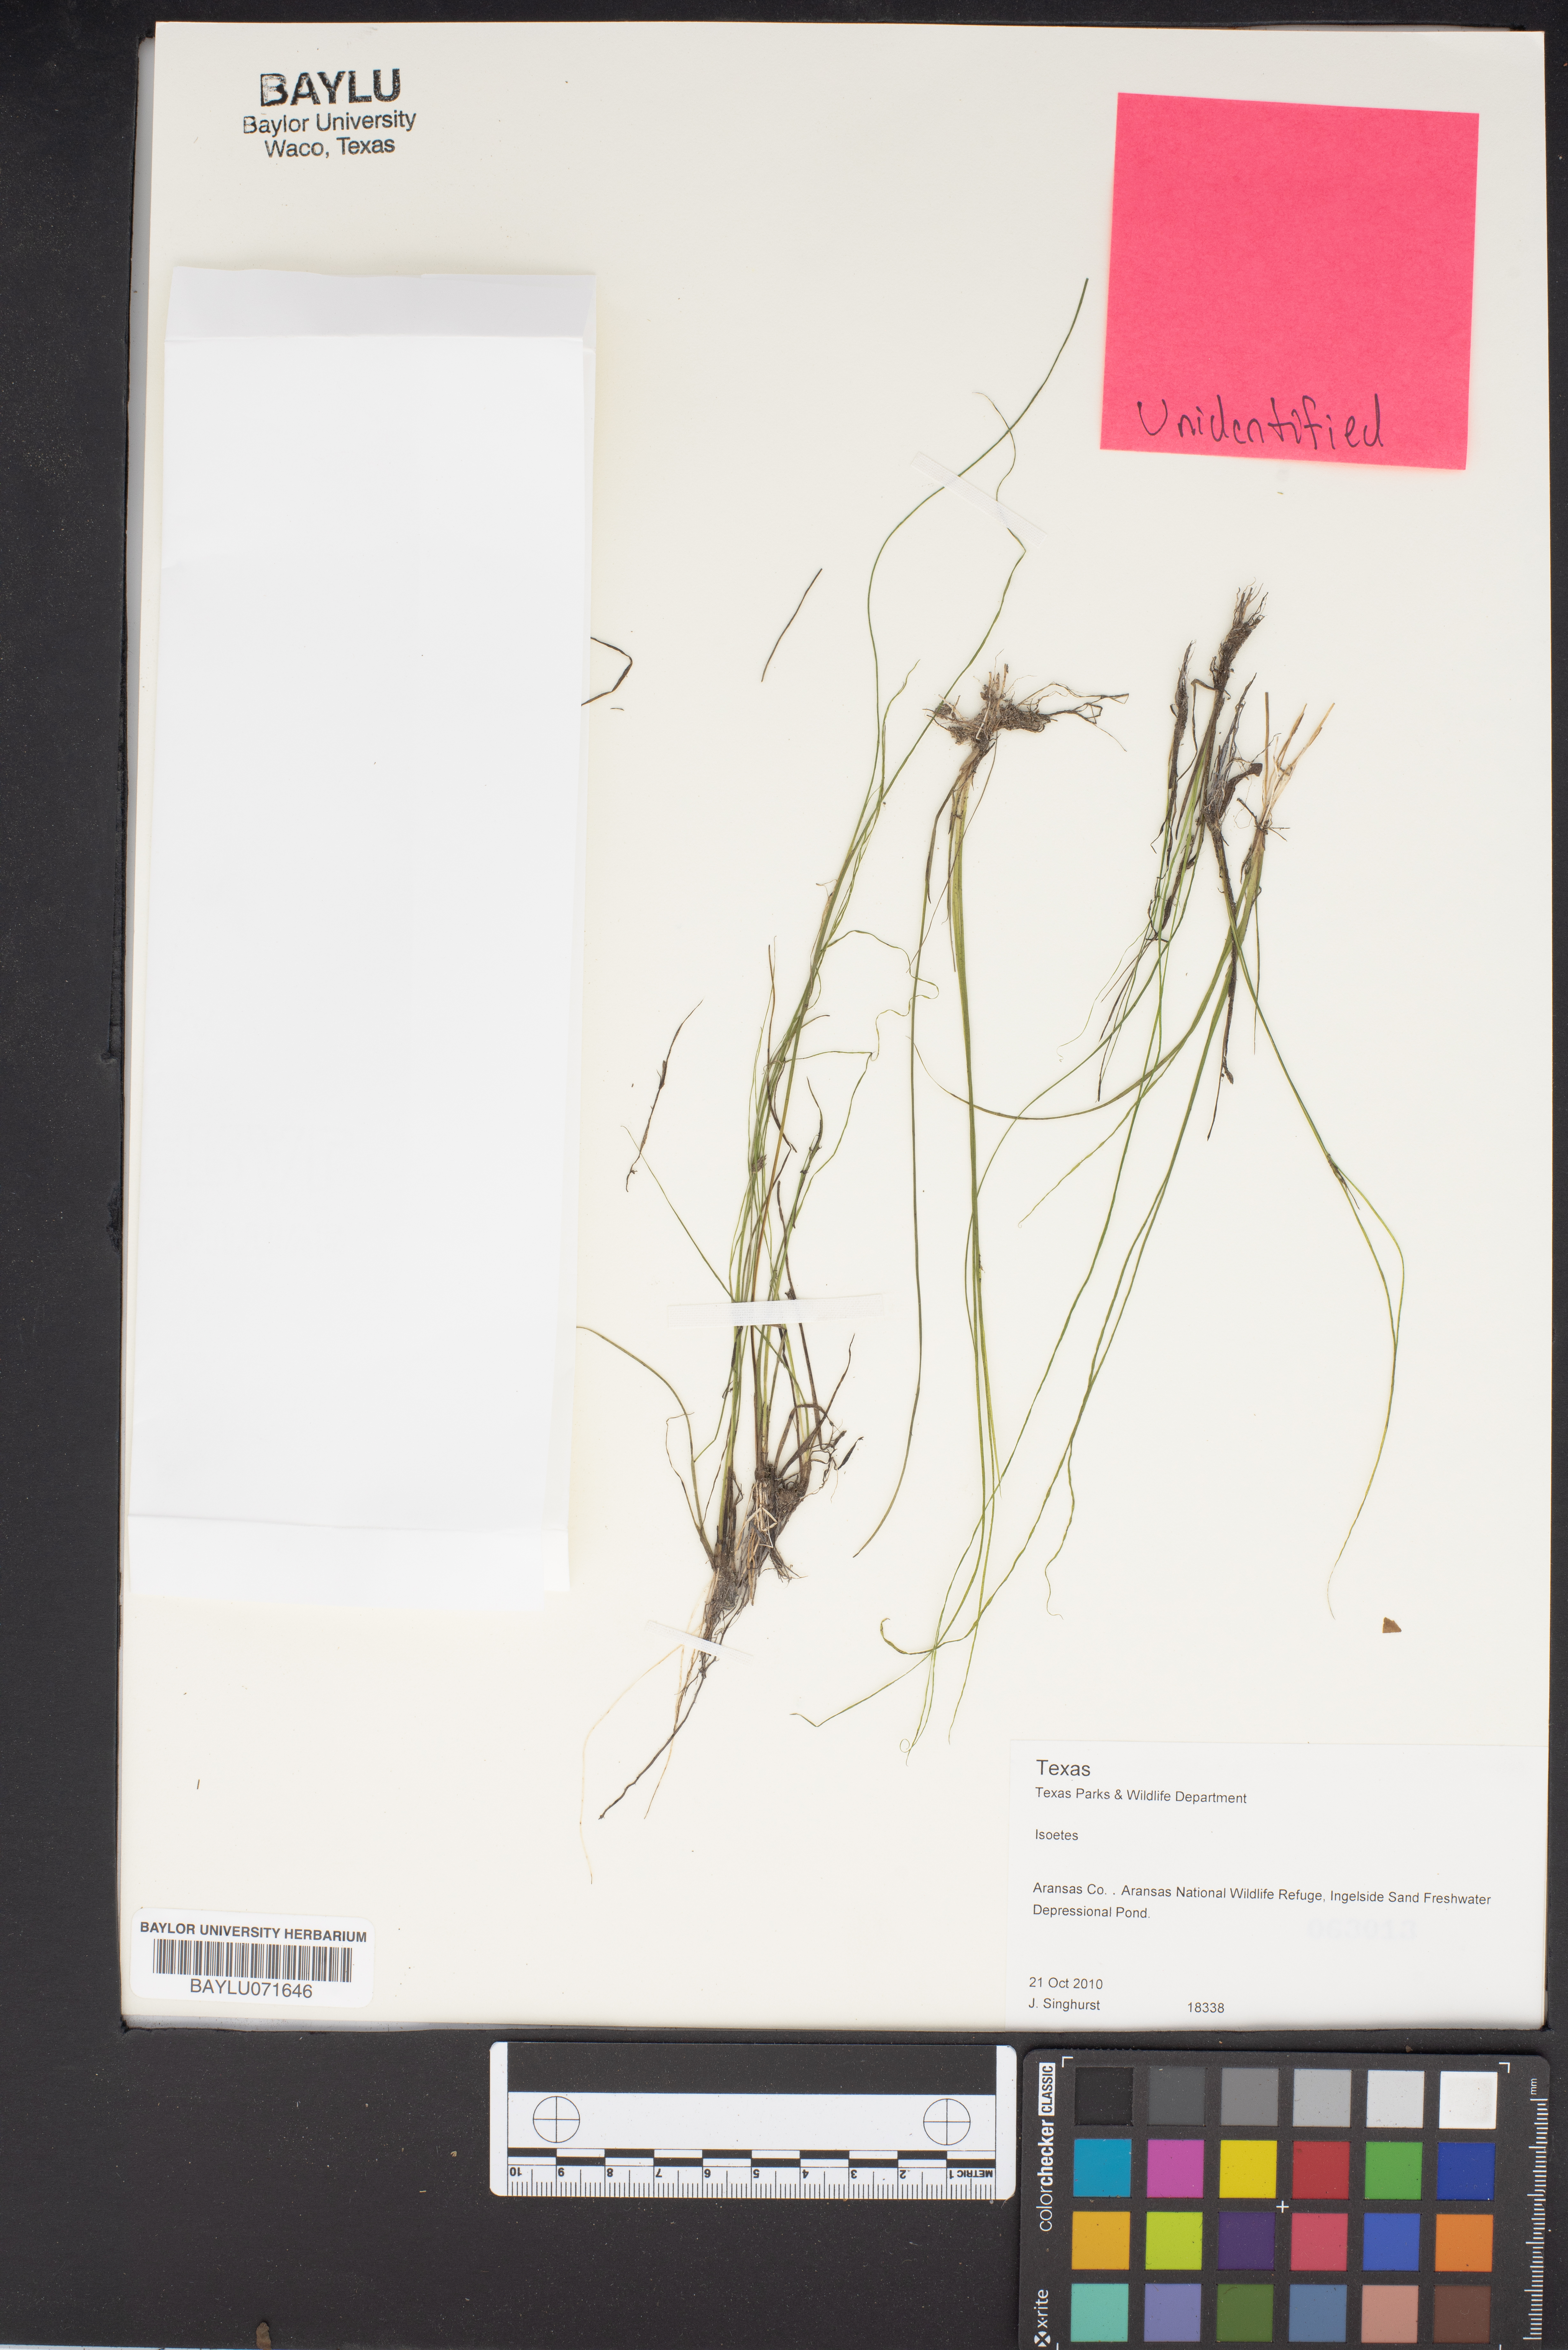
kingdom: Plantae
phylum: Tracheophyta
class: Lycopodiopsida
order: Isoetales
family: Isoetaceae
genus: Isoetes
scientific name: Isoetes
